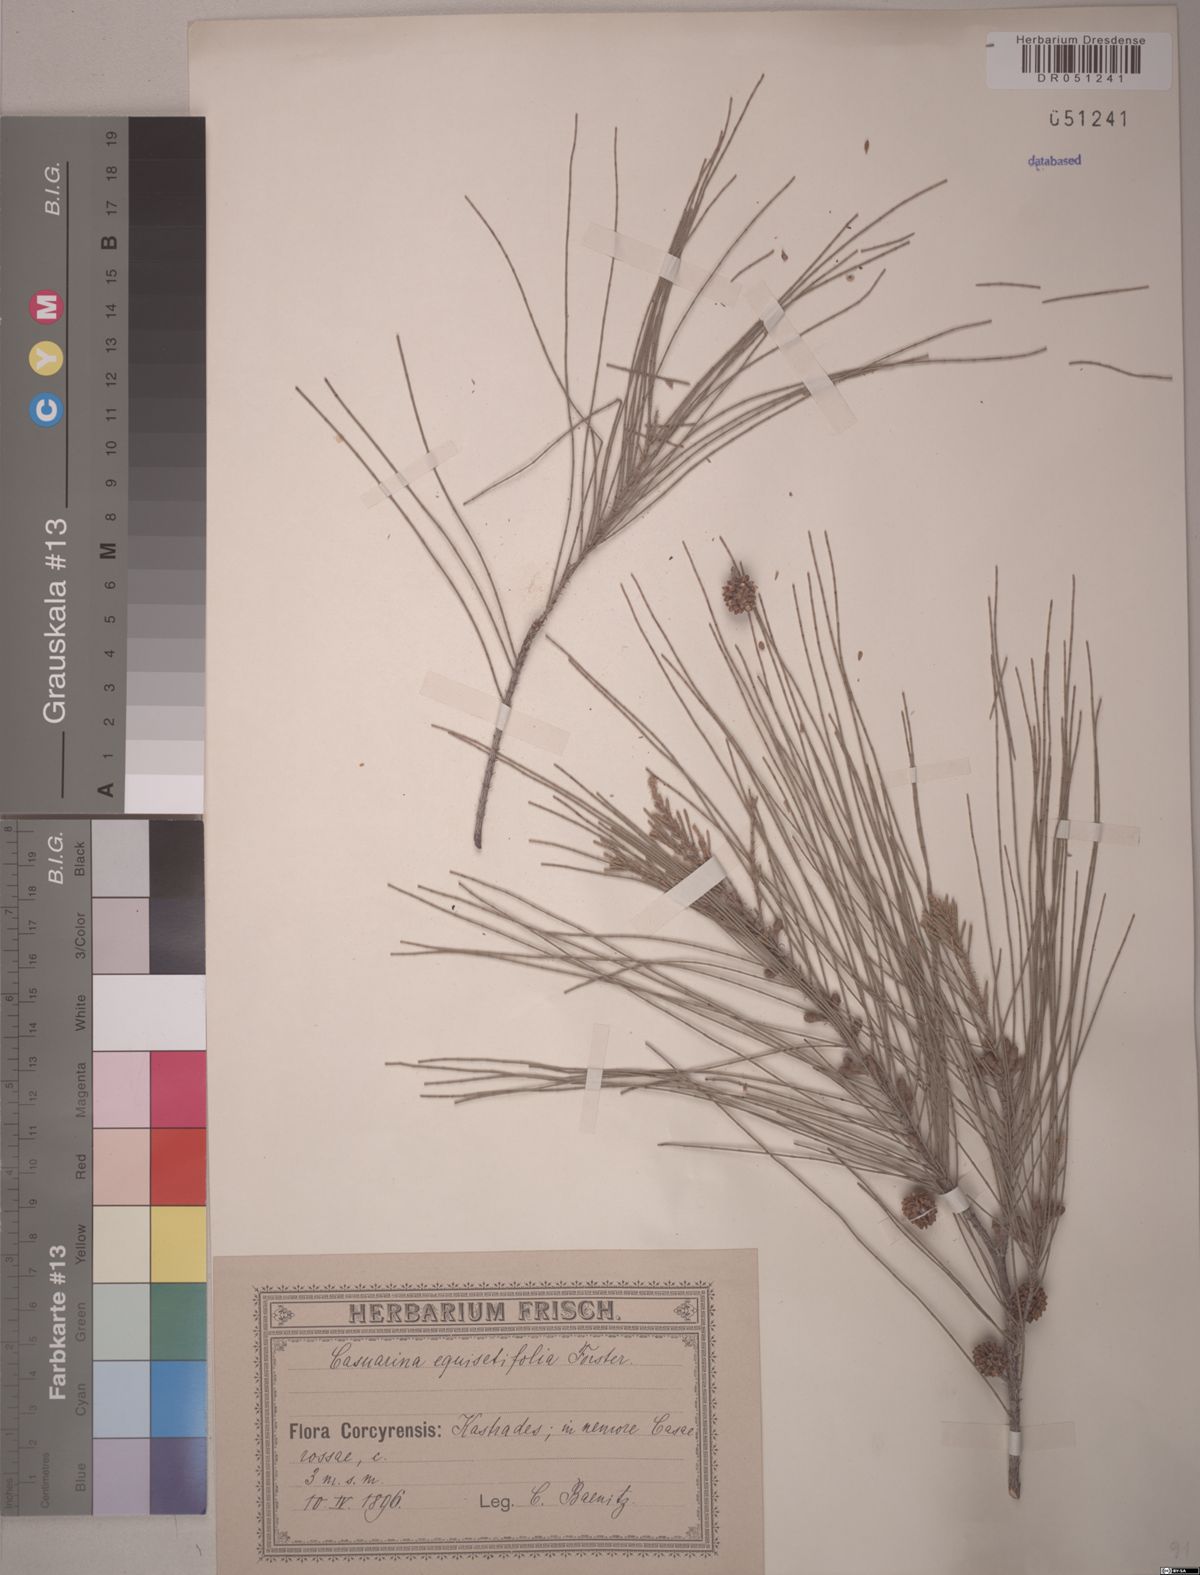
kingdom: Plantae
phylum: Tracheophyta
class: Magnoliopsida
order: Fagales
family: Casuarinaceae
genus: Casuarina
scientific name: Casuarina equisetifolia
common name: Beach sheoak
